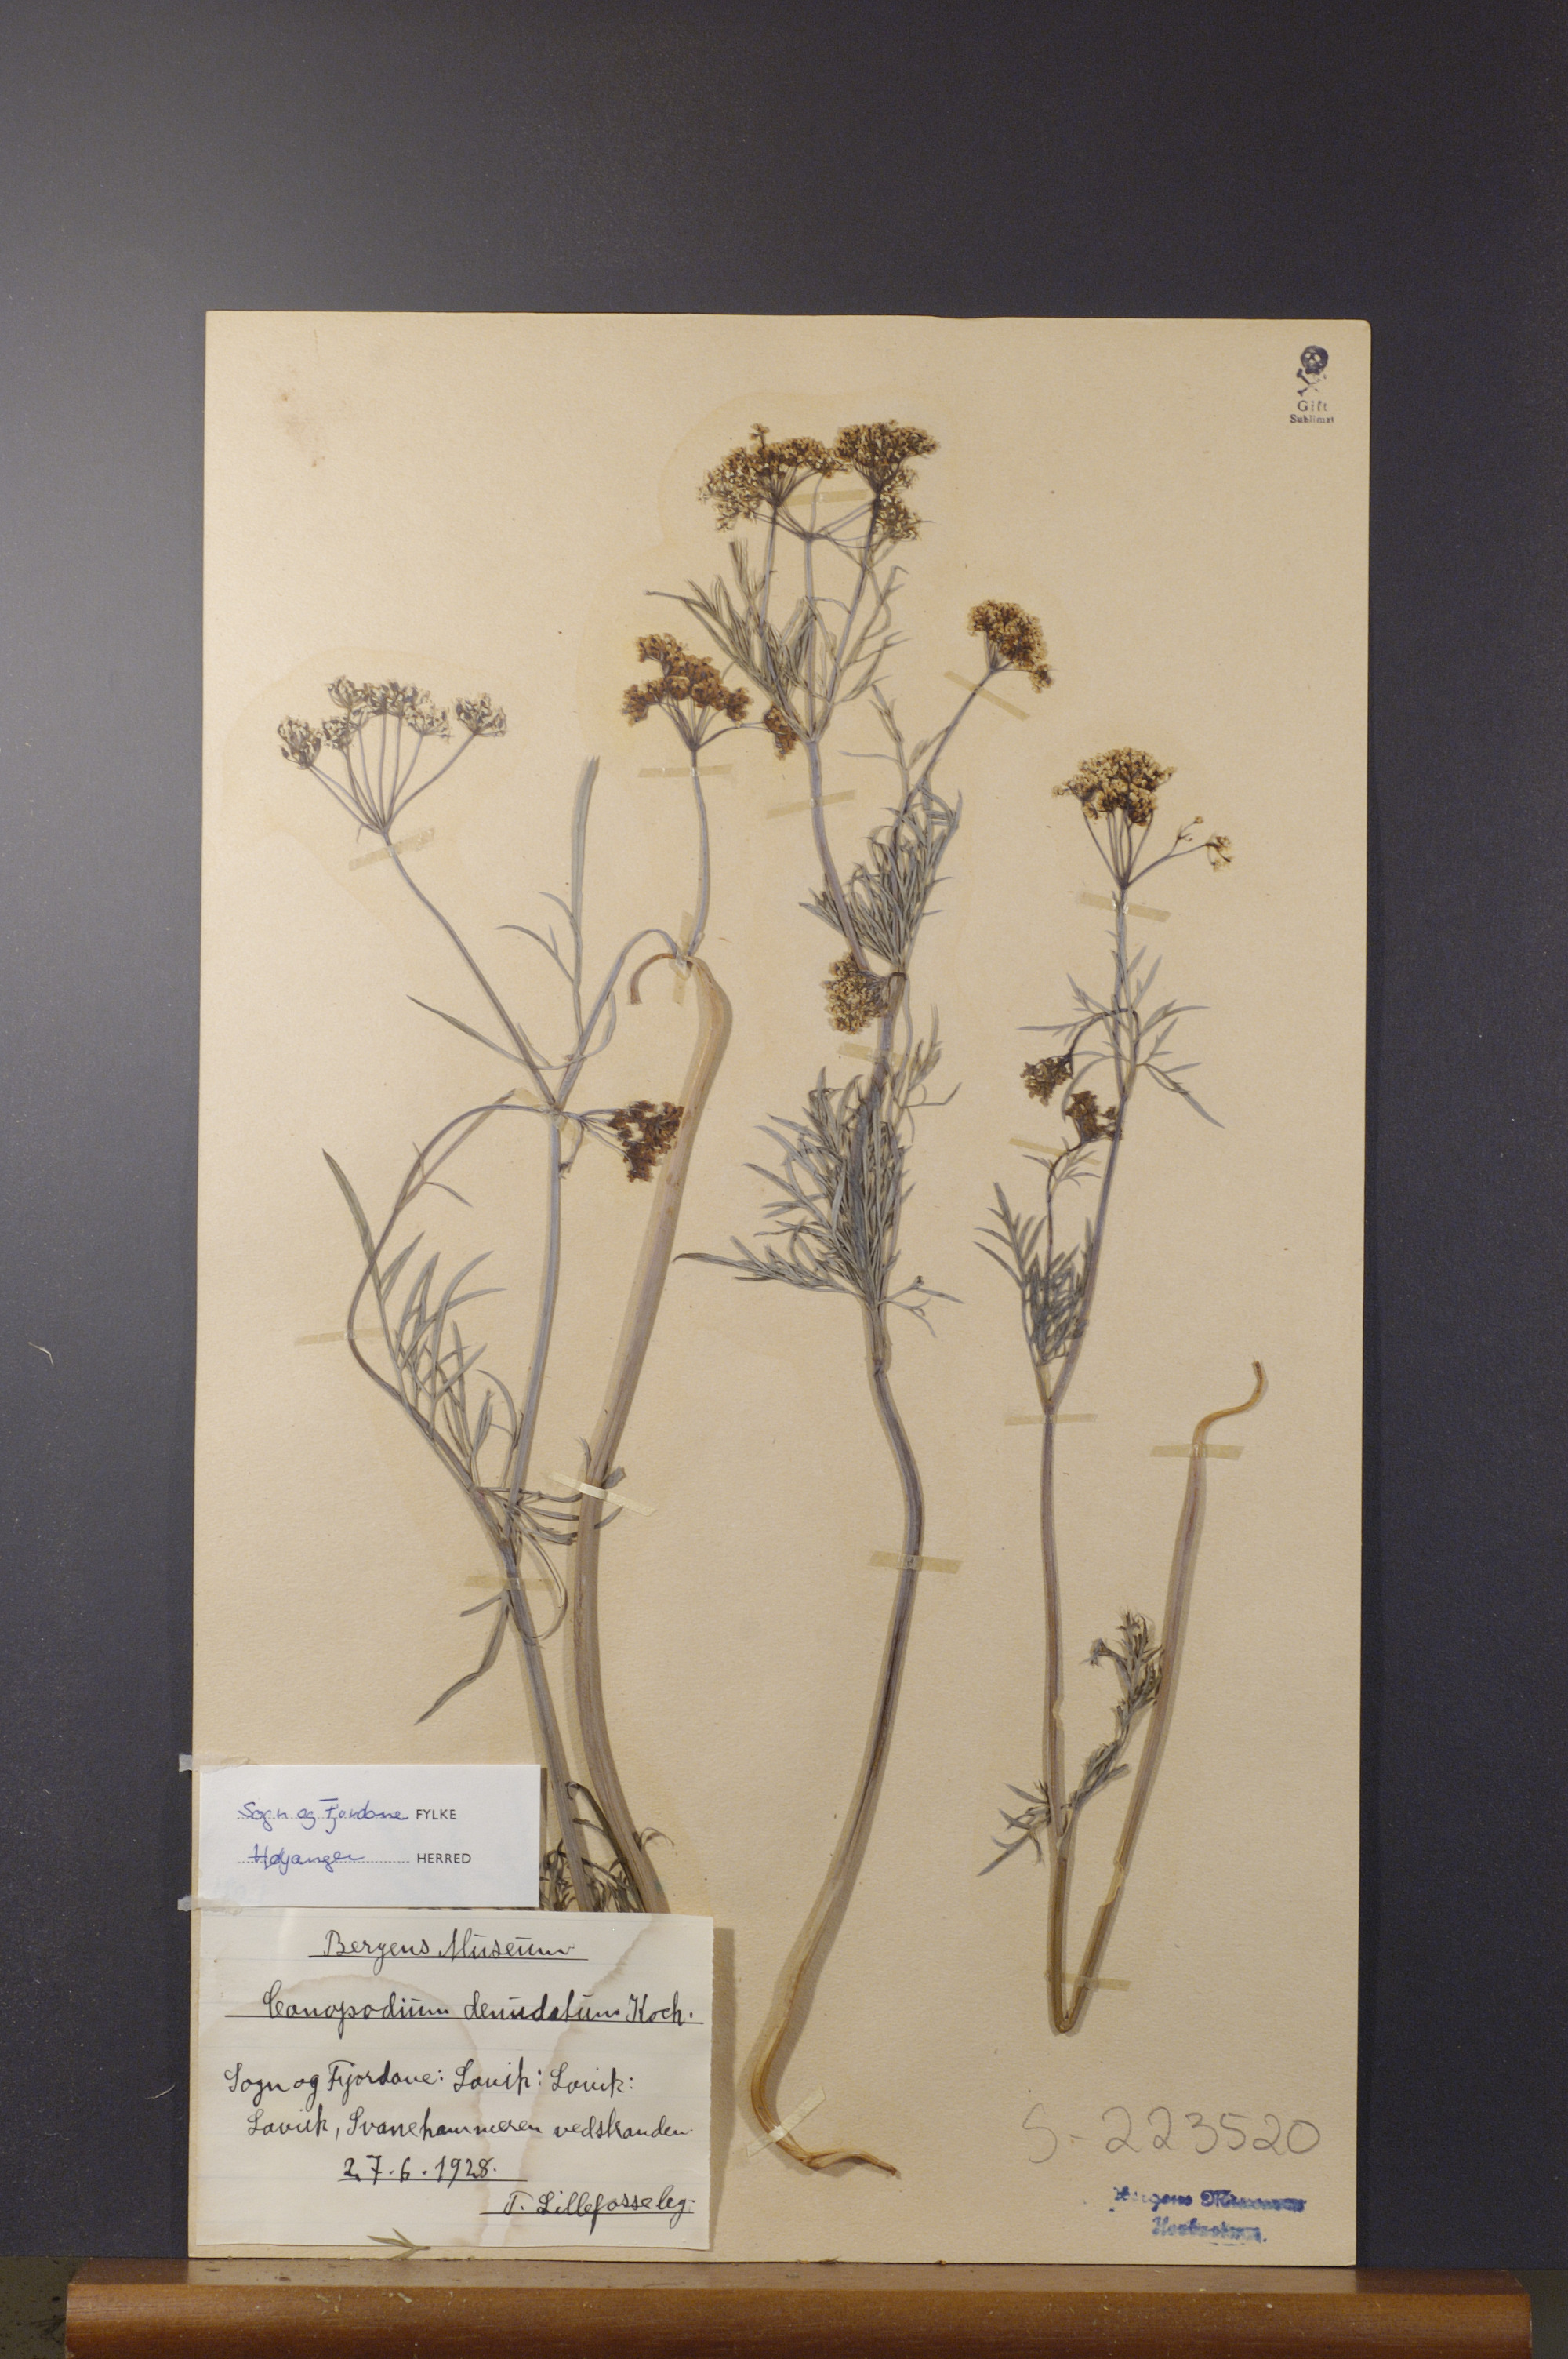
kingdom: Plantae
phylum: Tracheophyta
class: Magnoliopsida
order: Apiales
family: Apiaceae
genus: Conopodium
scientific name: Conopodium majus
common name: Pignut
